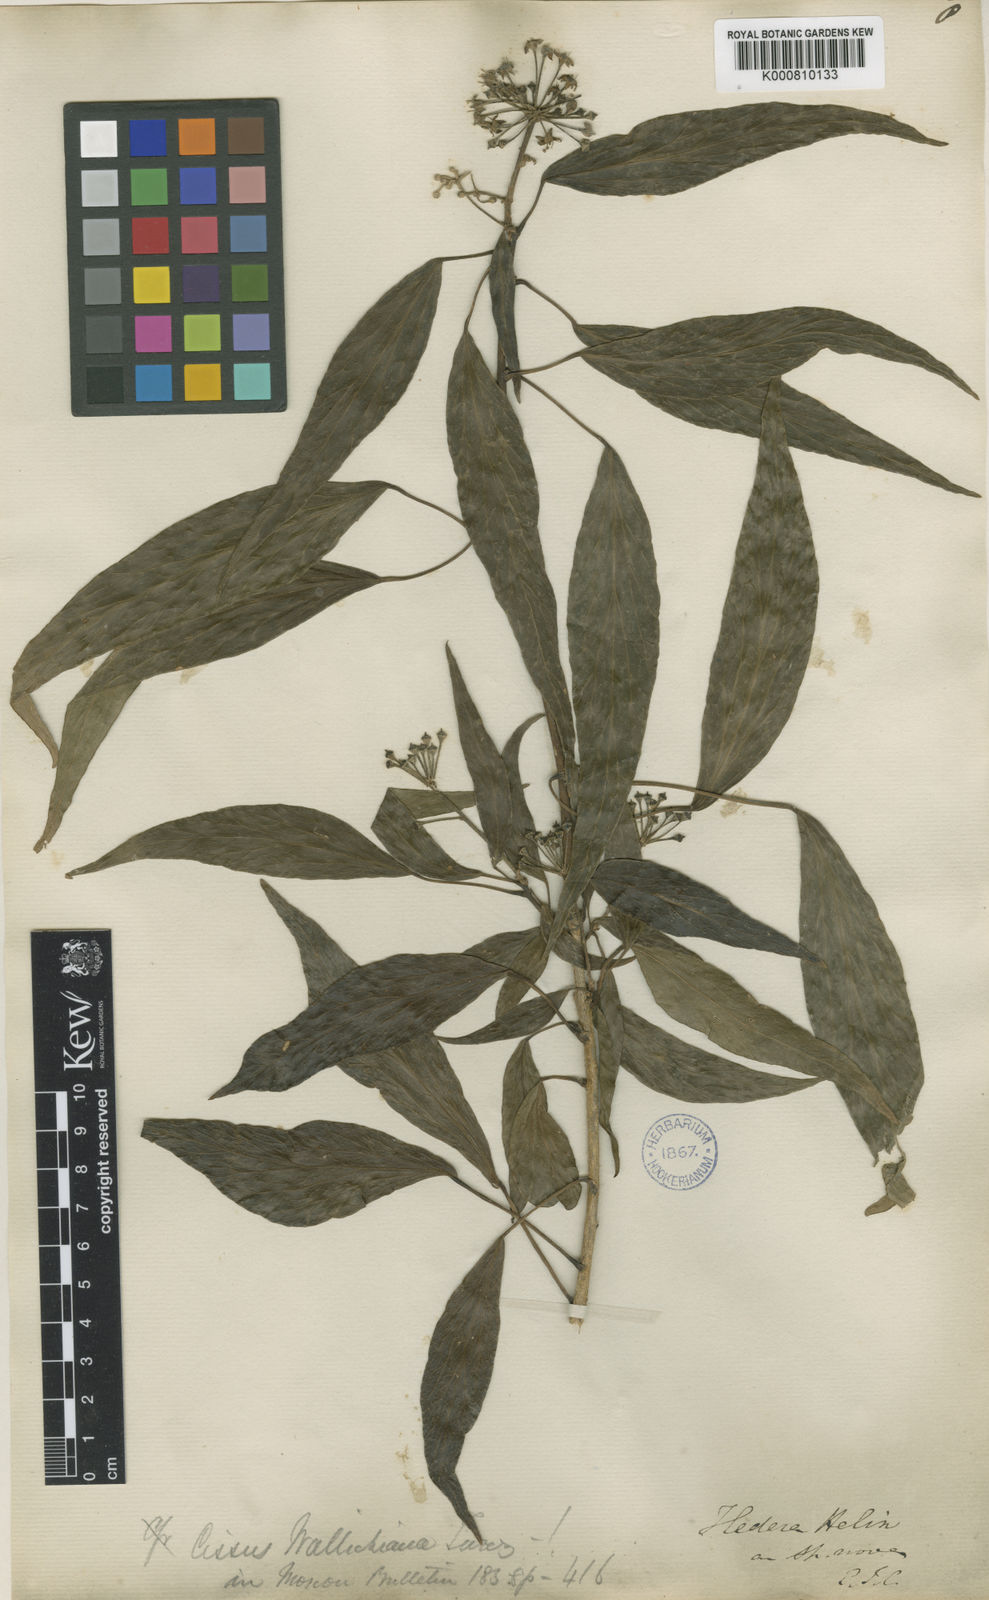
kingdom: Plantae
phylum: Tracheophyta
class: Magnoliopsida
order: Apiales
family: Araliaceae
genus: Hedera
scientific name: Hedera helix
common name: Ivy
